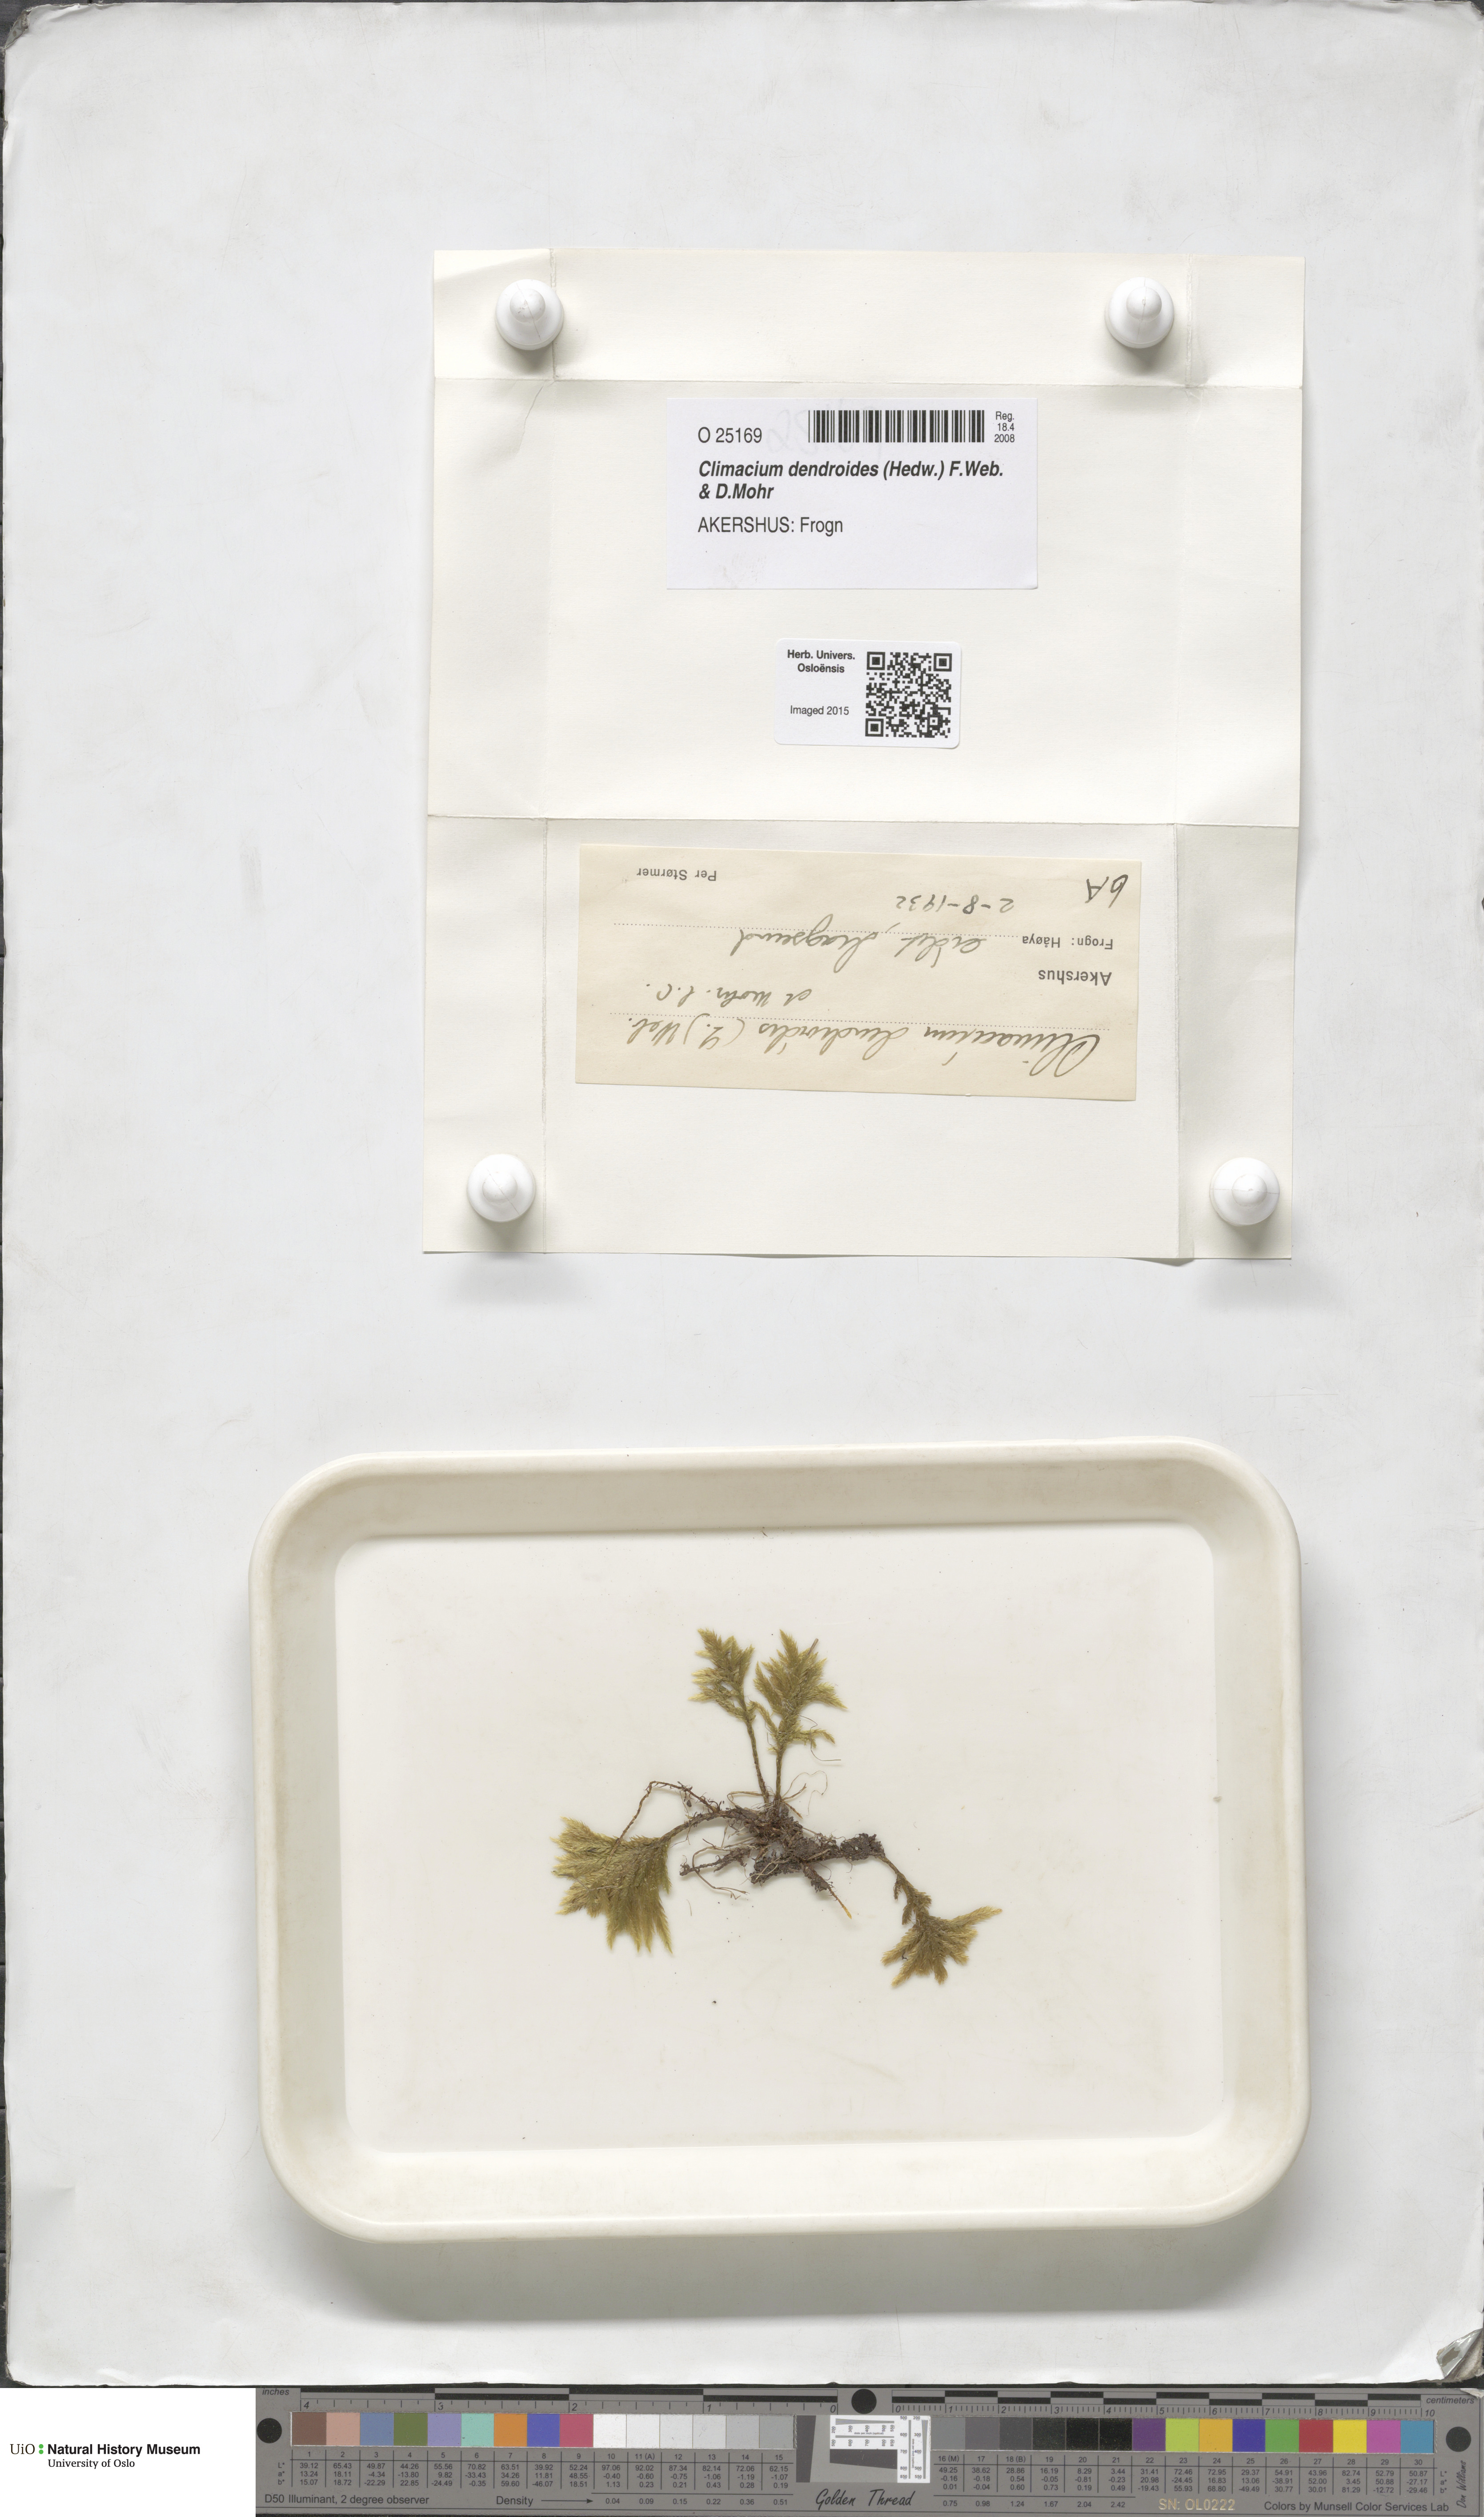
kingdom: Plantae
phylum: Bryophyta
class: Bryopsida
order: Hypnales
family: Climaciaceae
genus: Climacium
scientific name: Climacium dendroides
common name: Northern tree moss
